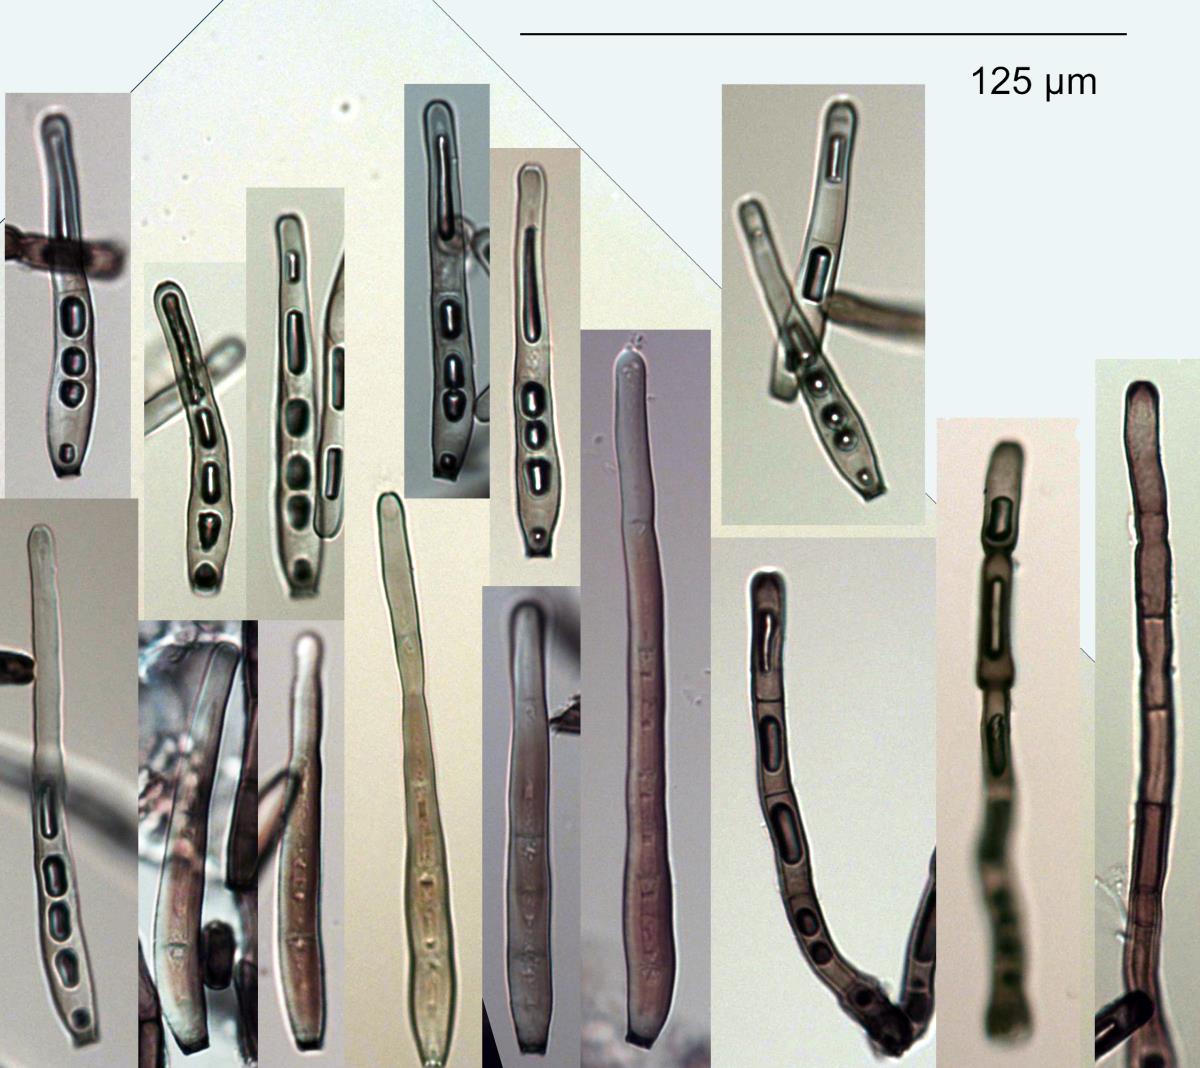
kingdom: Fungi
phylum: Ascomycota
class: Sordariomycetes
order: Chaetosphaeriales
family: Chaetosphaeriaceae
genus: Ellisembia
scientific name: Ellisembia
